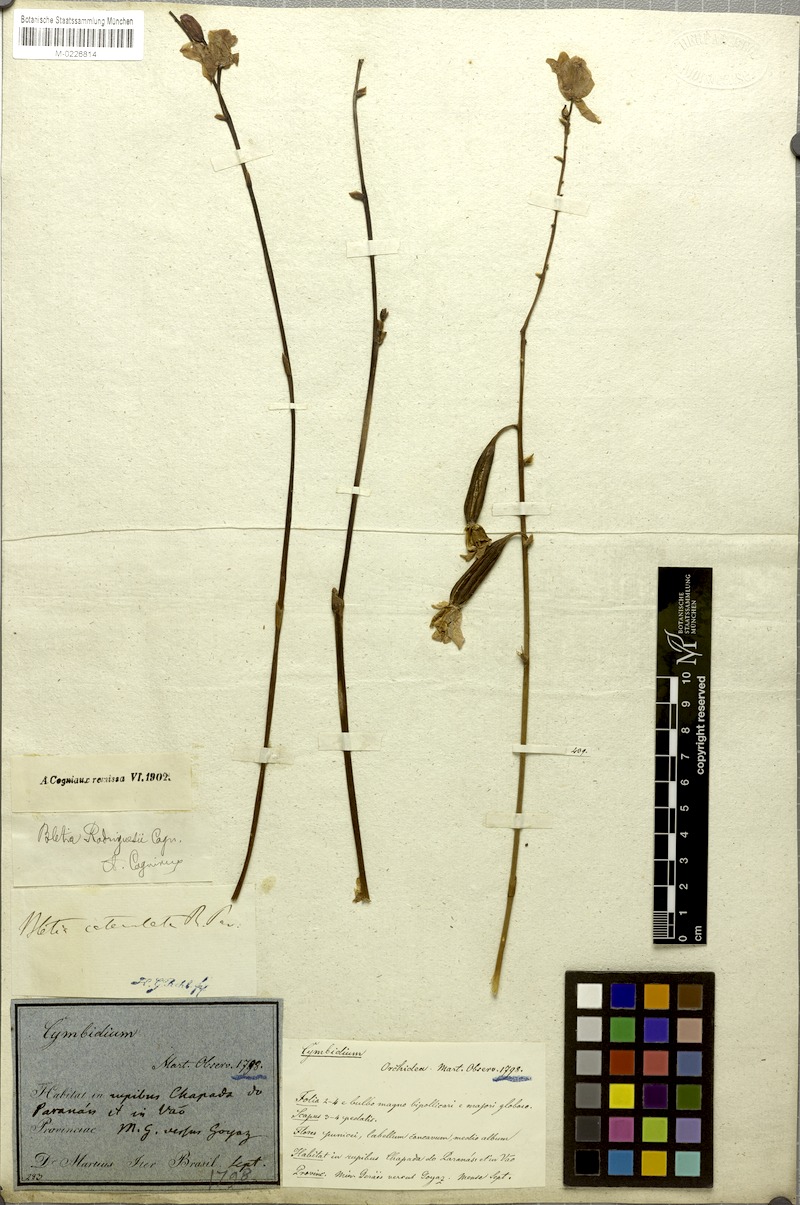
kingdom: Plantae
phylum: Tracheophyta
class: Liliopsida
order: Asparagales
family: Orchidaceae
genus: Bletia
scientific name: Bletia catenulata
